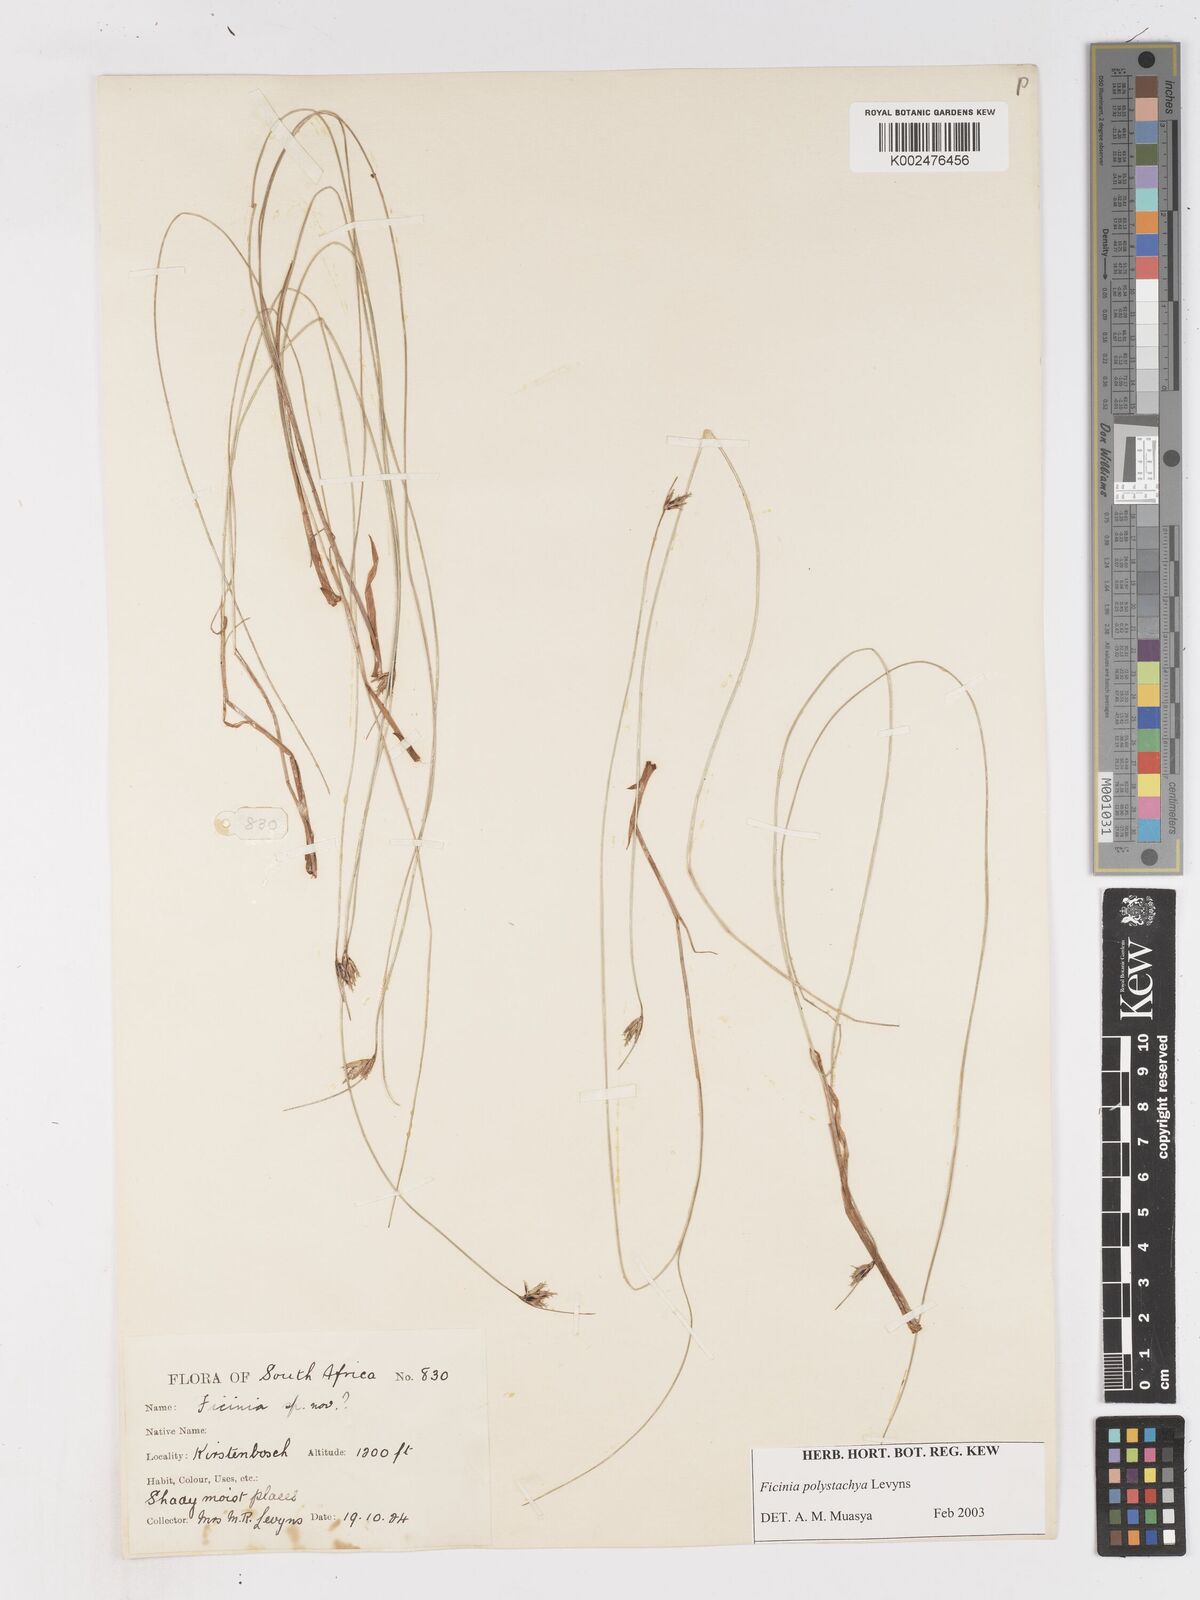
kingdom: Plantae
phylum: Tracheophyta
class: Liliopsida
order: Poales
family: Cyperaceae
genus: Ficinia
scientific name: Ficinia polystachya
